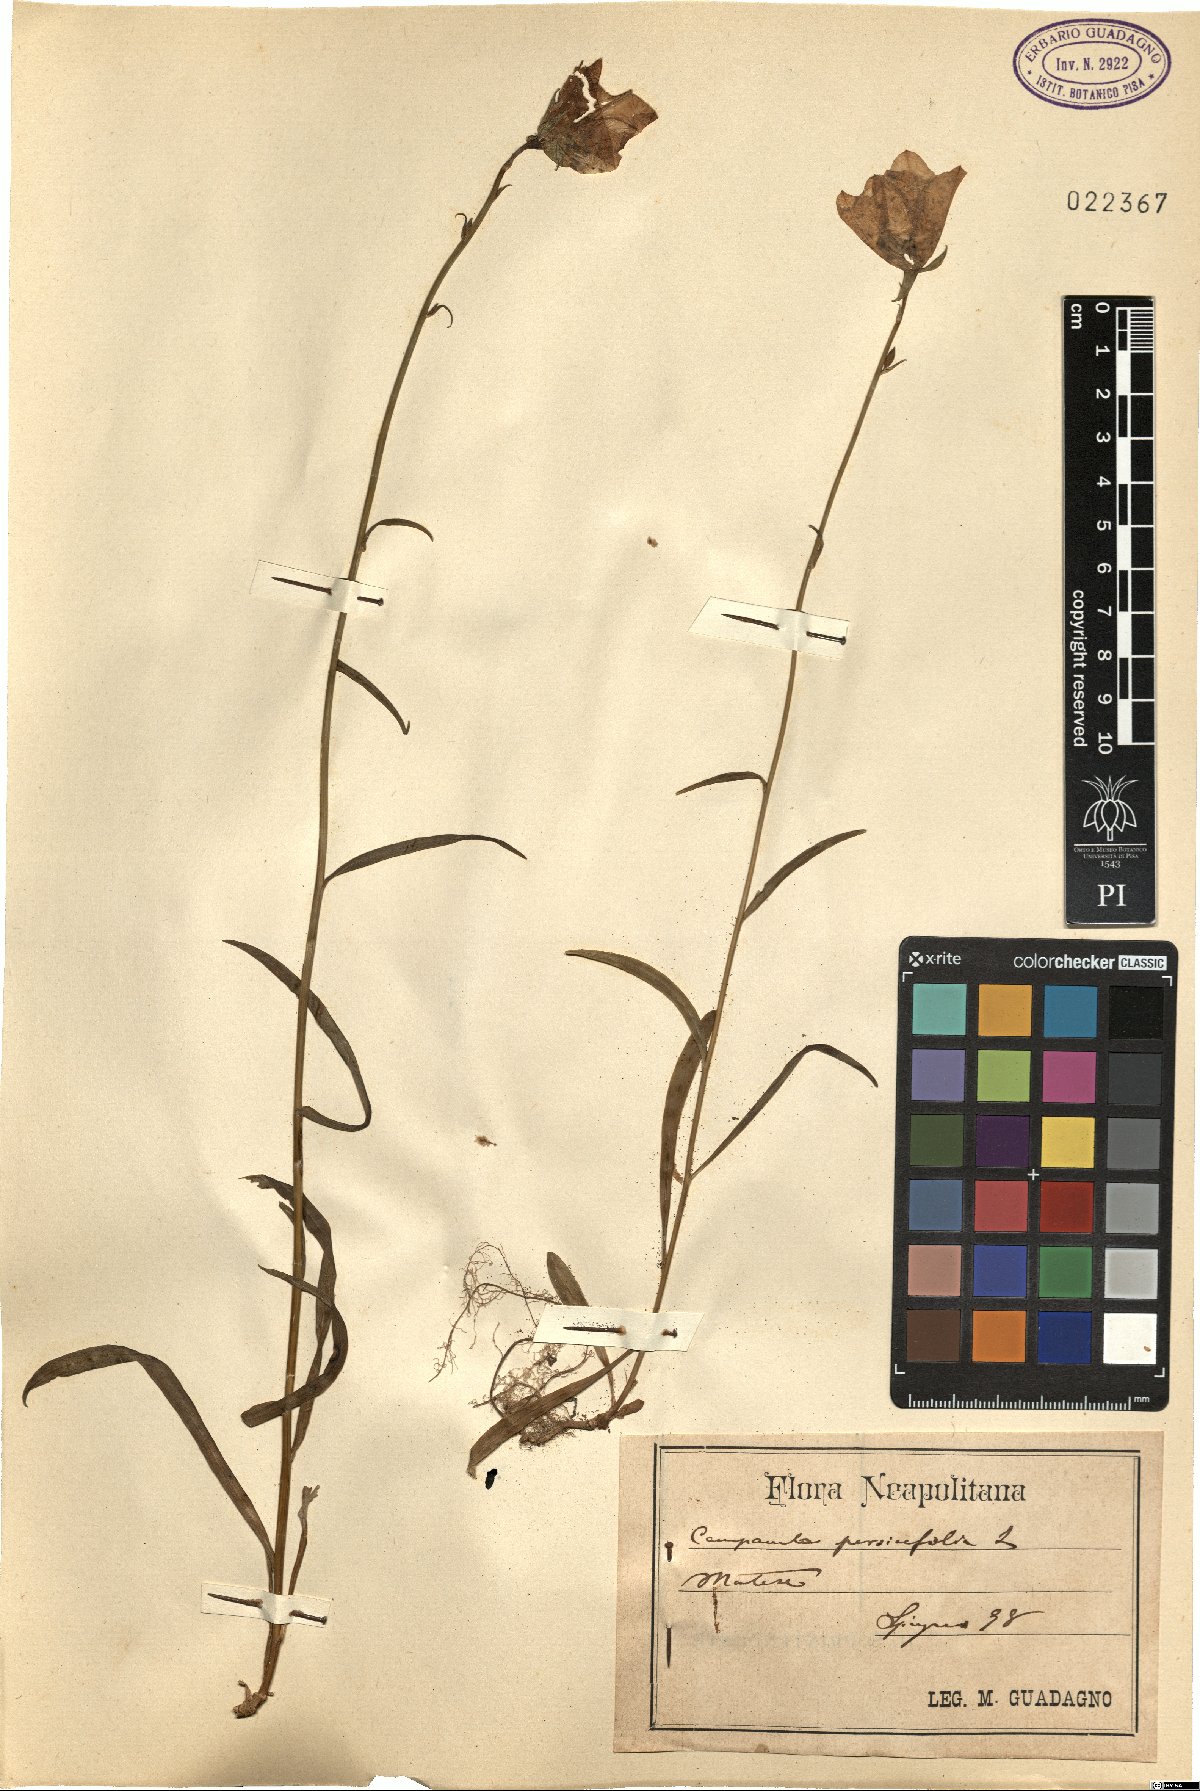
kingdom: Plantae
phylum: Tracheophyta
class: Magnoliopsida
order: Asterales
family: Campanulaceae
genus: Campanula
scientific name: Campanula persicifolia
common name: Peach-leaved bellflower
